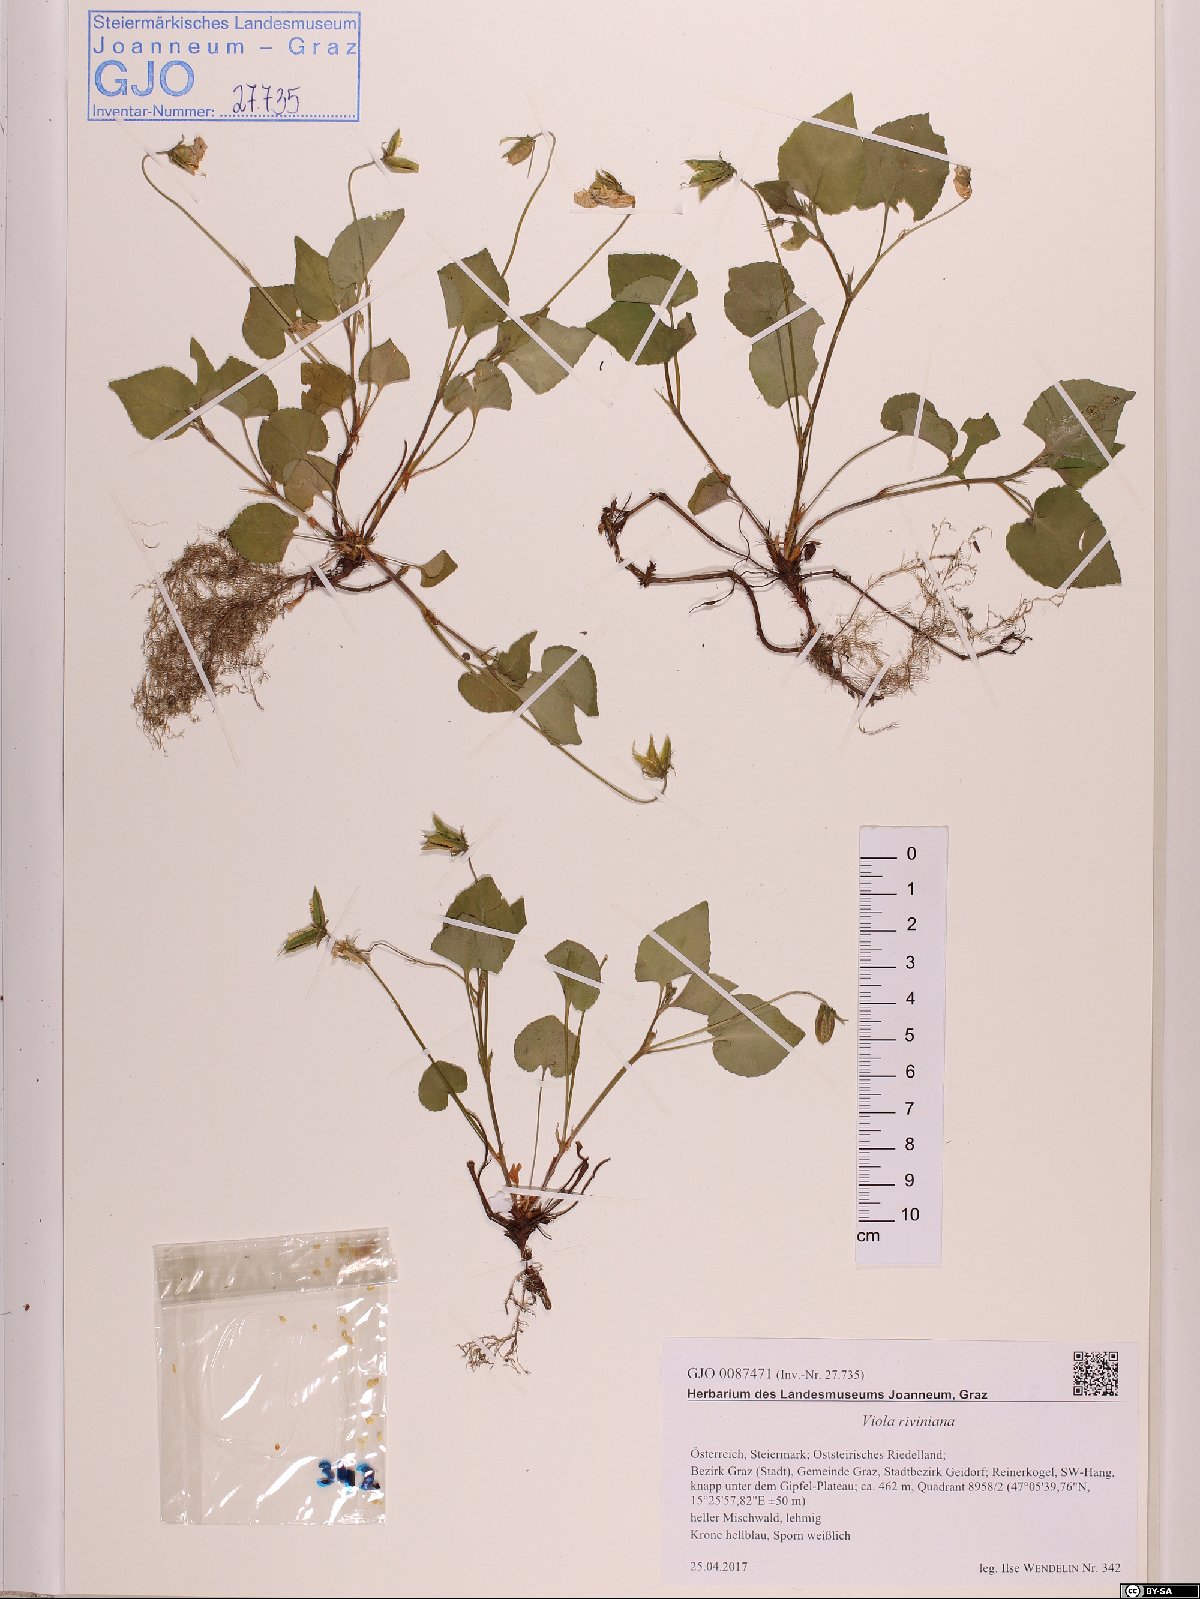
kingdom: Plantae
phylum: Tracheophyta
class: Magnoliopsida
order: Malpighiales
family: Violaceae
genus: Viola
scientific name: Viola riviniana
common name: Common dog-violet
